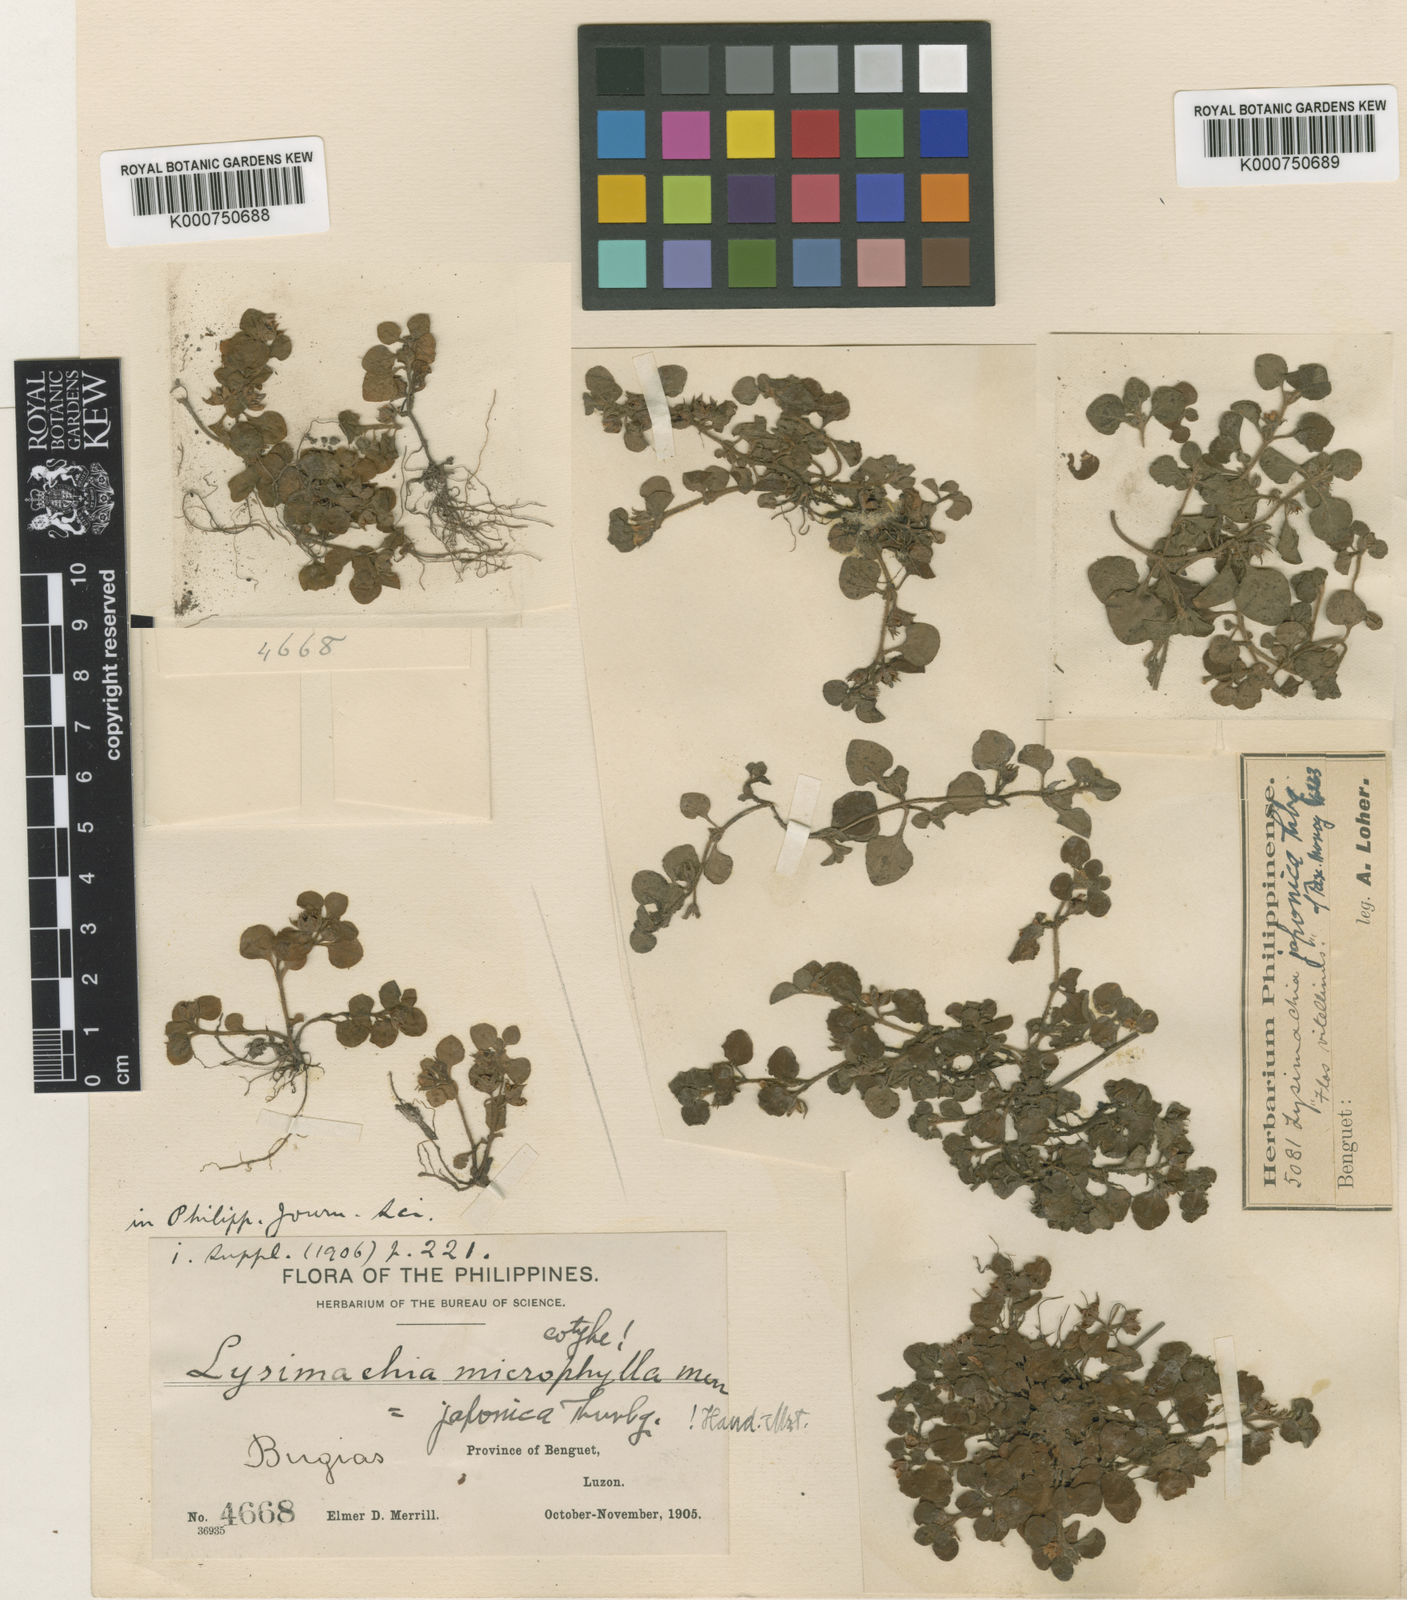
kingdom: Plantae
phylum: Tracheophyta
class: Magnoliopsida
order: Ericales
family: Primulaceae
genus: Lysimachia
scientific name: Lysimachia japonica
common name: Japanese yellow loosestrife
